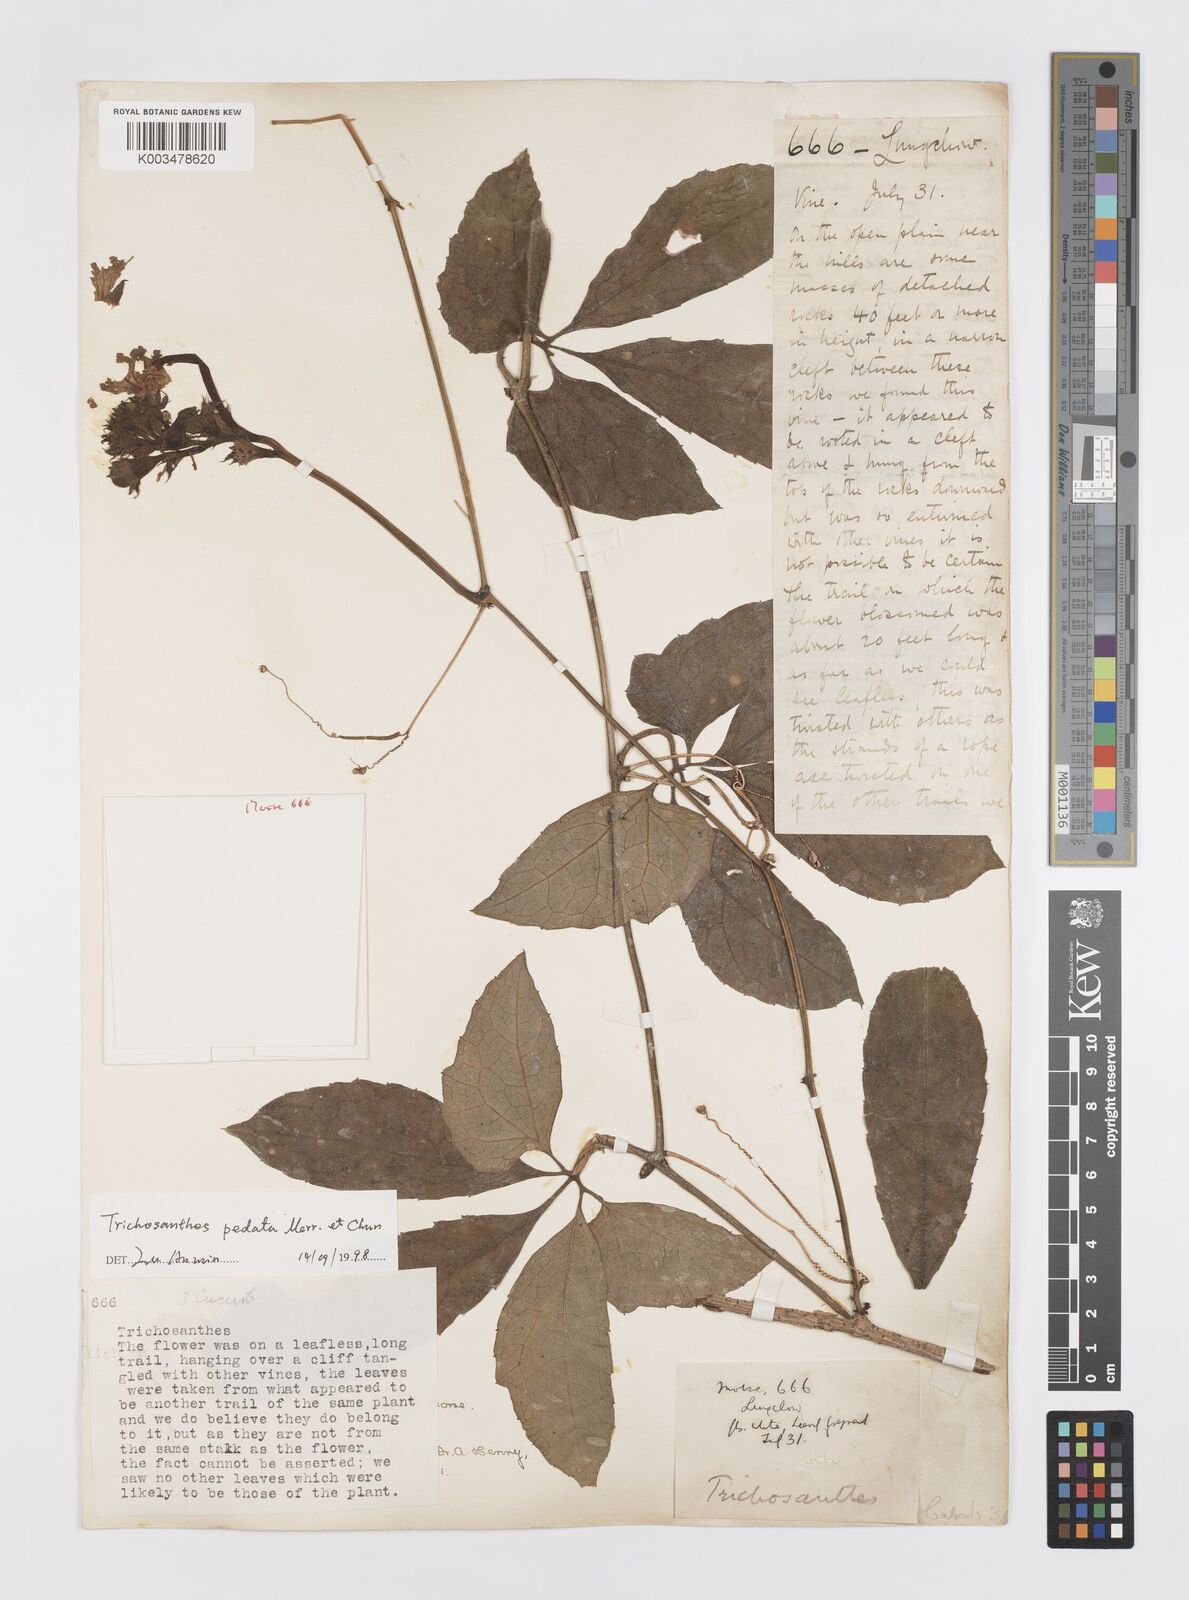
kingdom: Plantae
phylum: Tracheophyta
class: Magnoliopsida
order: Cucurbitales
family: Cucurbitaceae
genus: Trichosanthes
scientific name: Trichosanthes pedata
